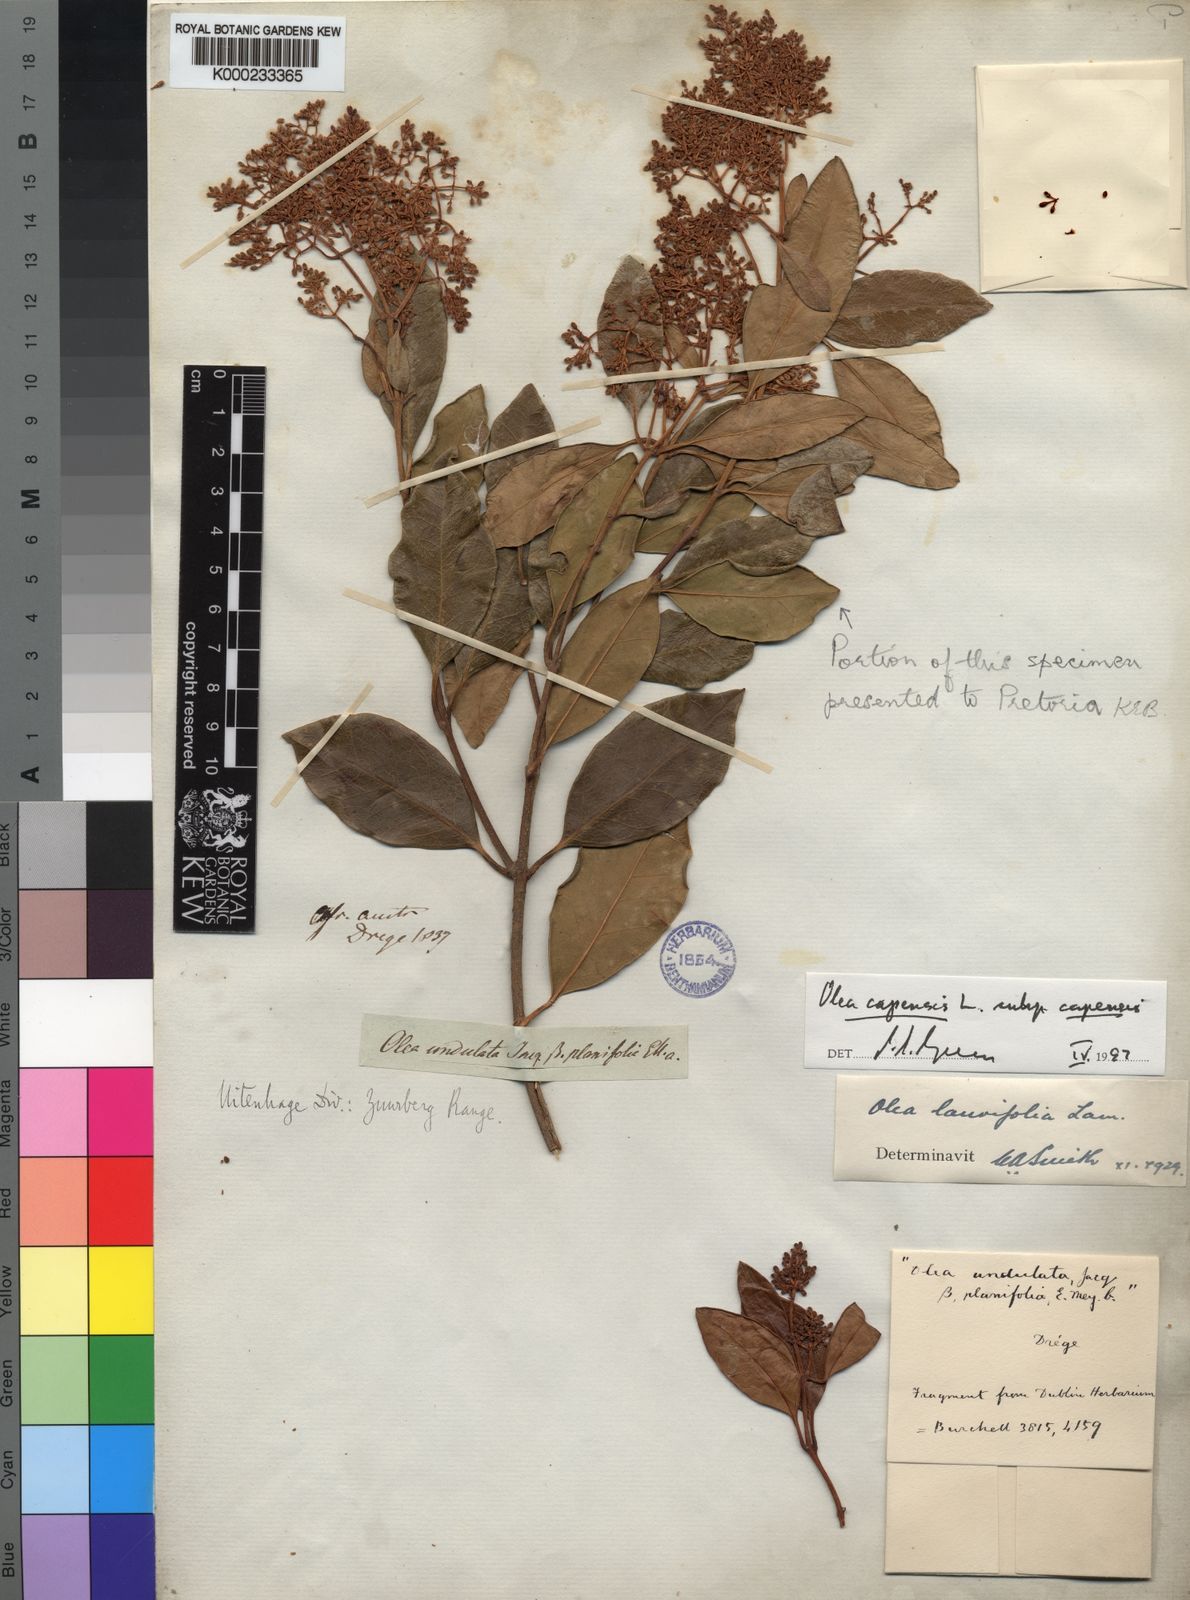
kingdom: Plantae
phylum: Tracheophyta
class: Magnoliopsida
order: Lamiales
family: Oleaceae
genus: Olea
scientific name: Olea capensis
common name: Black ironwood
